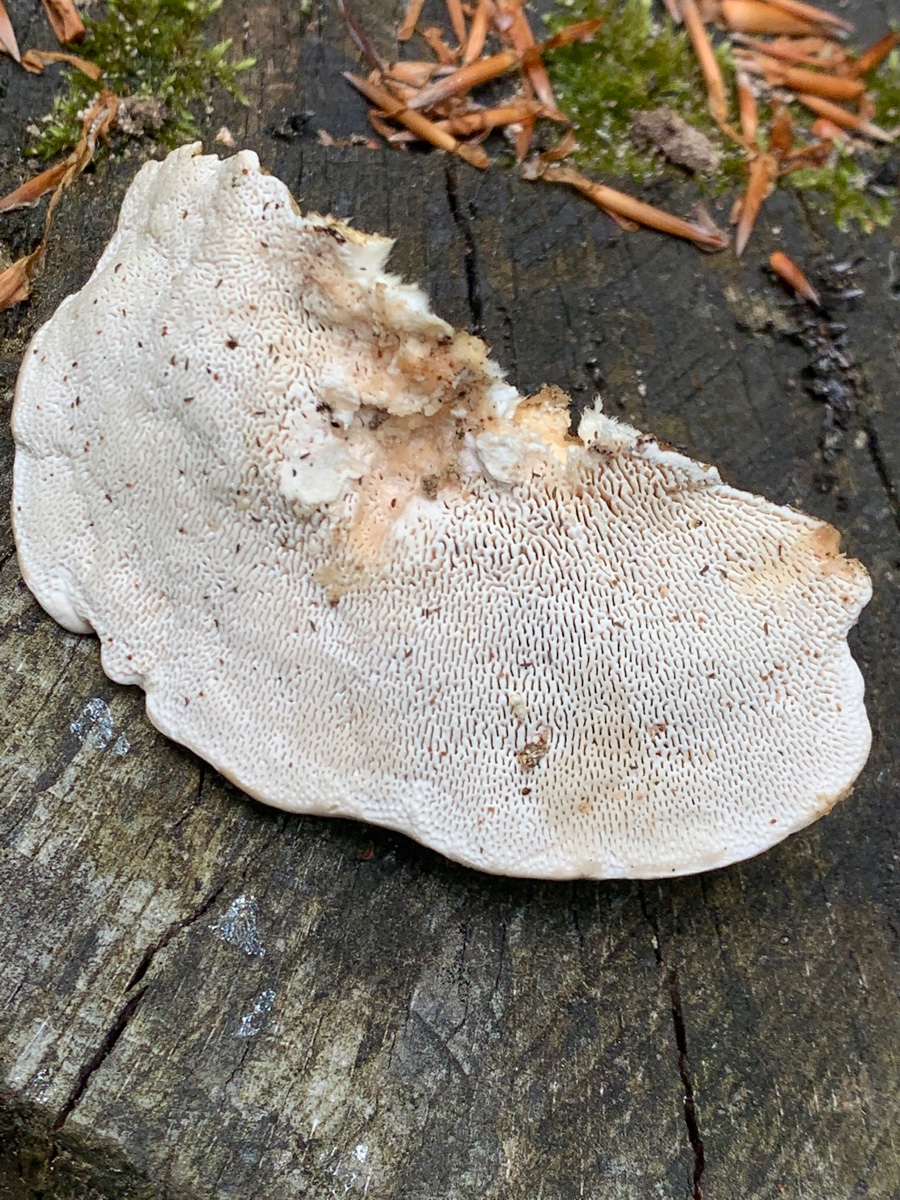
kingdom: Fungi
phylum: Basidiomycota
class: Agaricomycetes
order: Polyporales
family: Polyporaceae
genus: Trametes
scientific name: Trametes gibbosa
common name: puklet læderporesvamp
